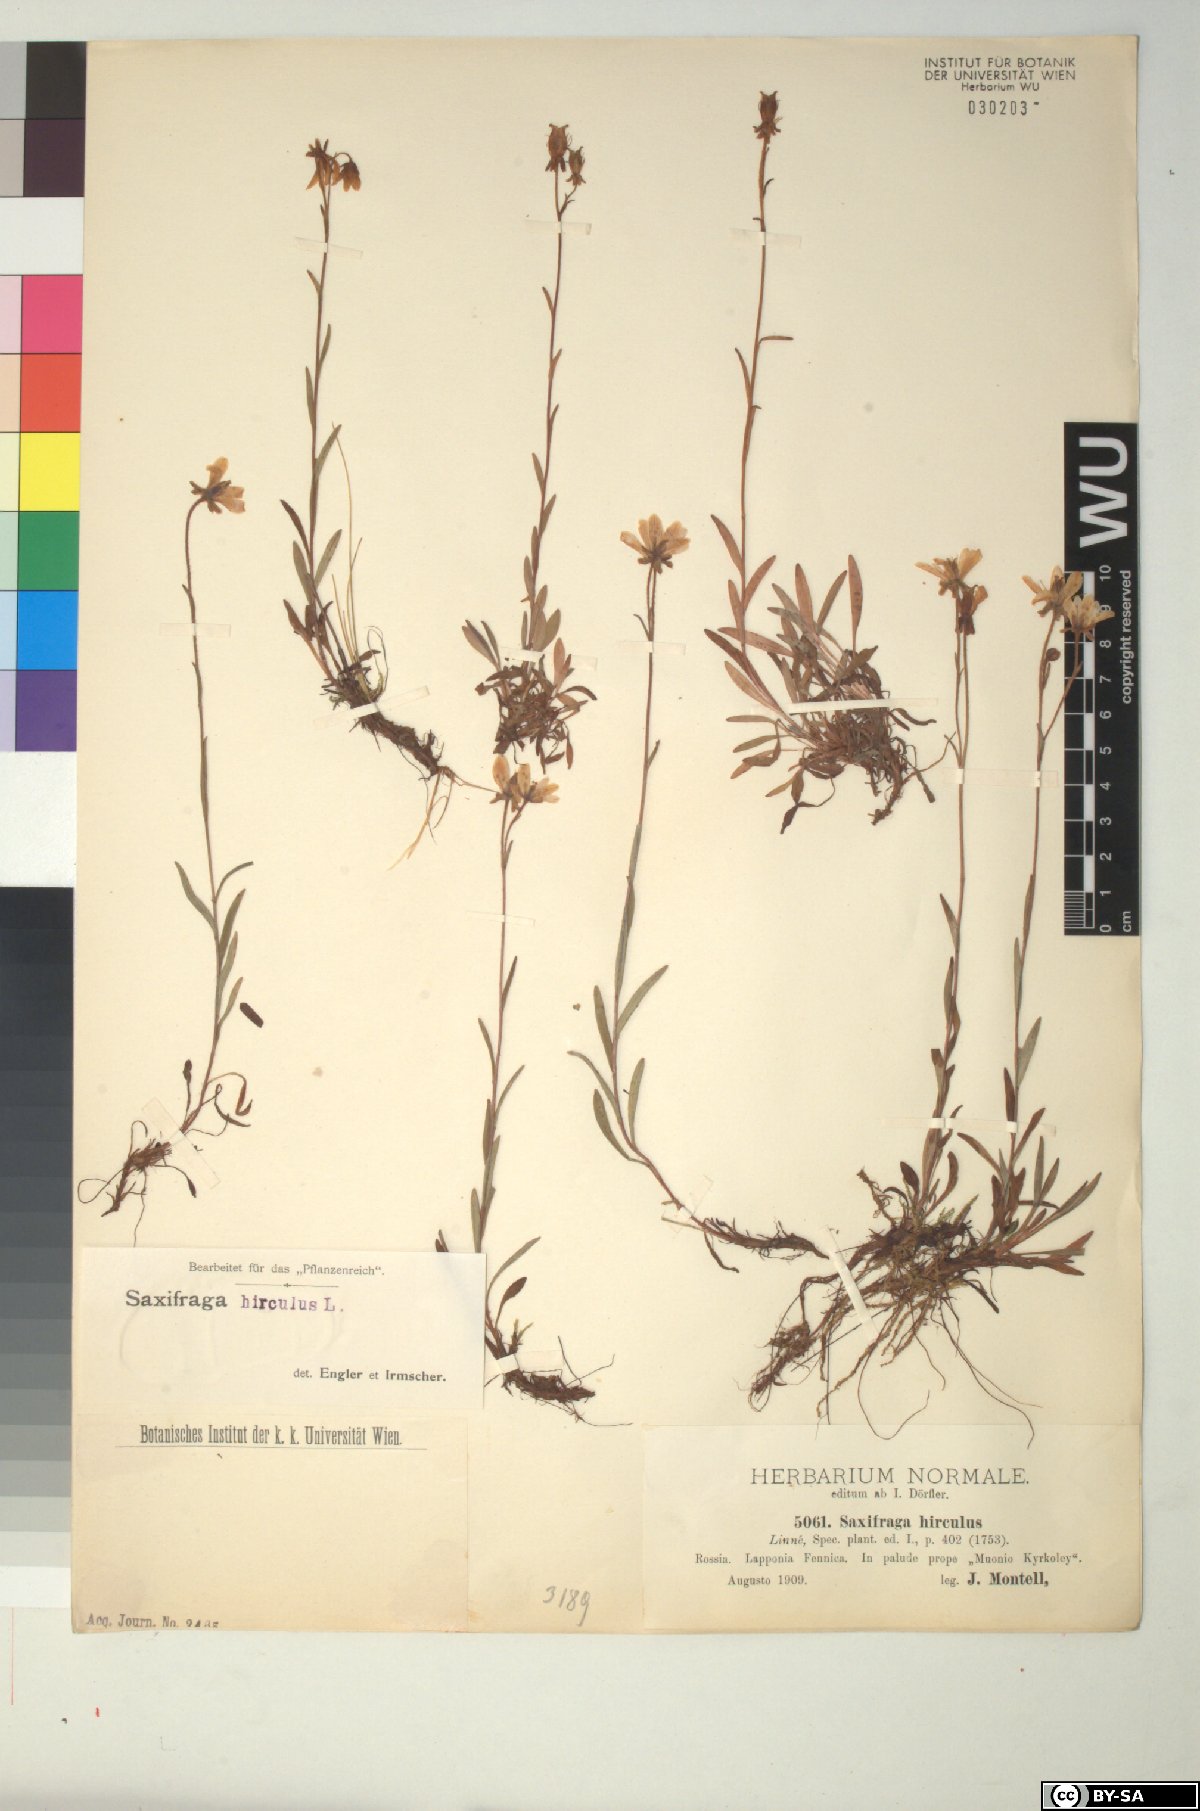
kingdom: Plantae
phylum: Tracheophyta
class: Magnoliopsida
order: Saxifragales
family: Saxifragaceae
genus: Saxifraga
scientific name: Saxifraga hirculus
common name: Yellow marsh saxifrage
